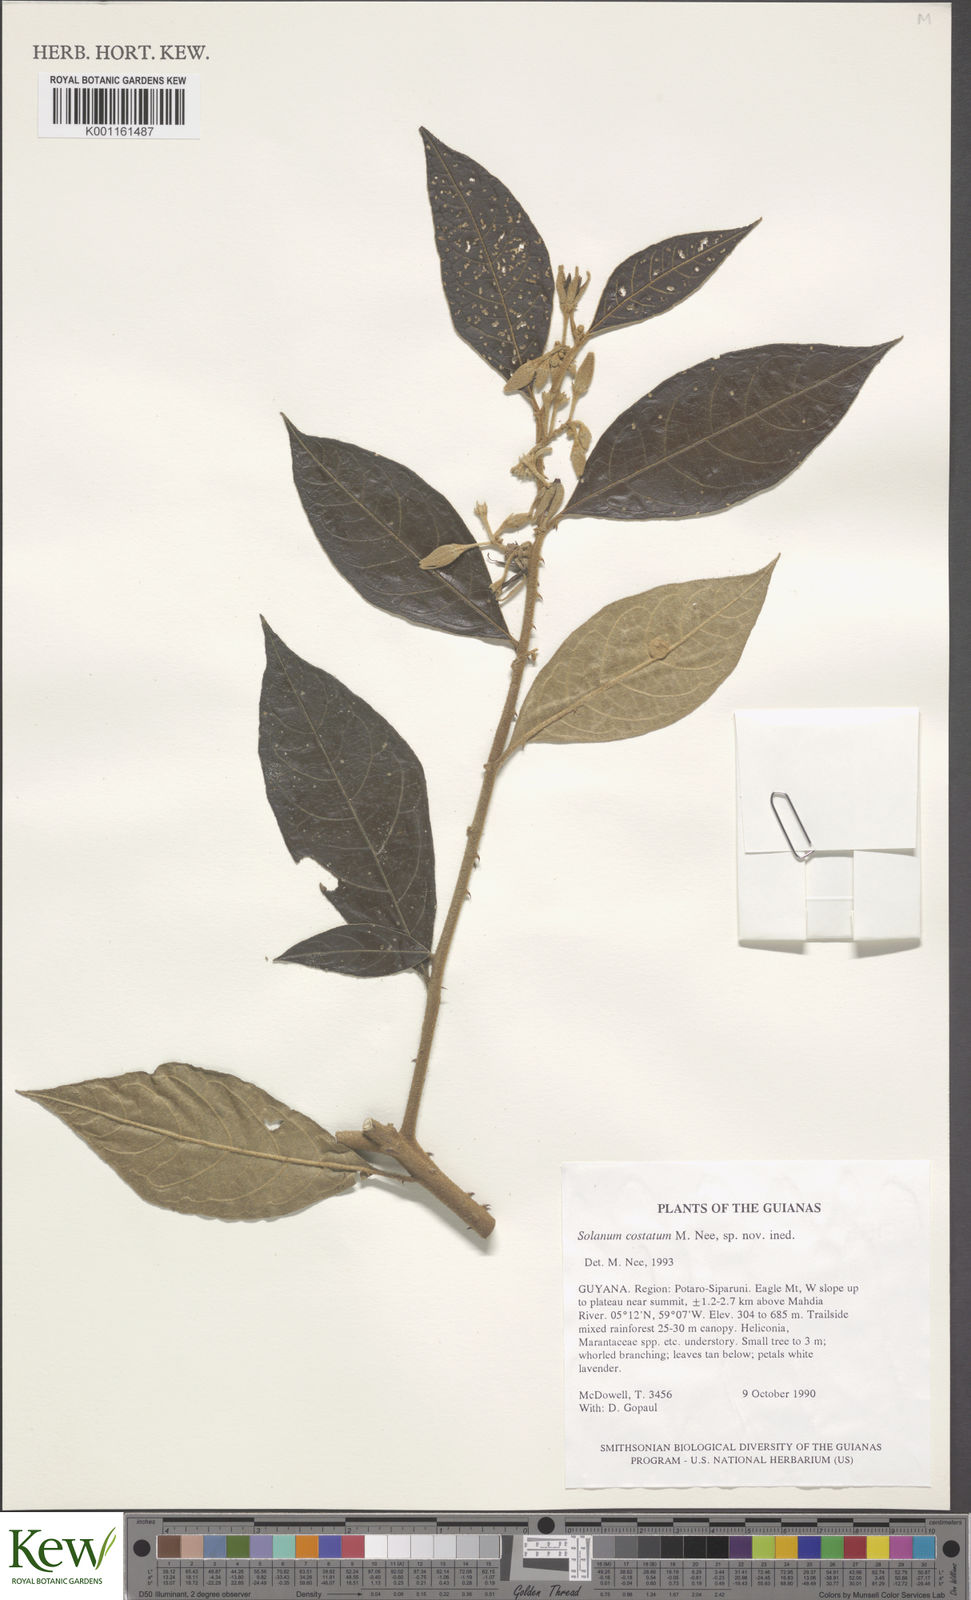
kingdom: Plantae
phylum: Tracheophyta
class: Magnoliopsida
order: Solanales
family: Solanaceae
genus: Solanum
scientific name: Solanum costatum
